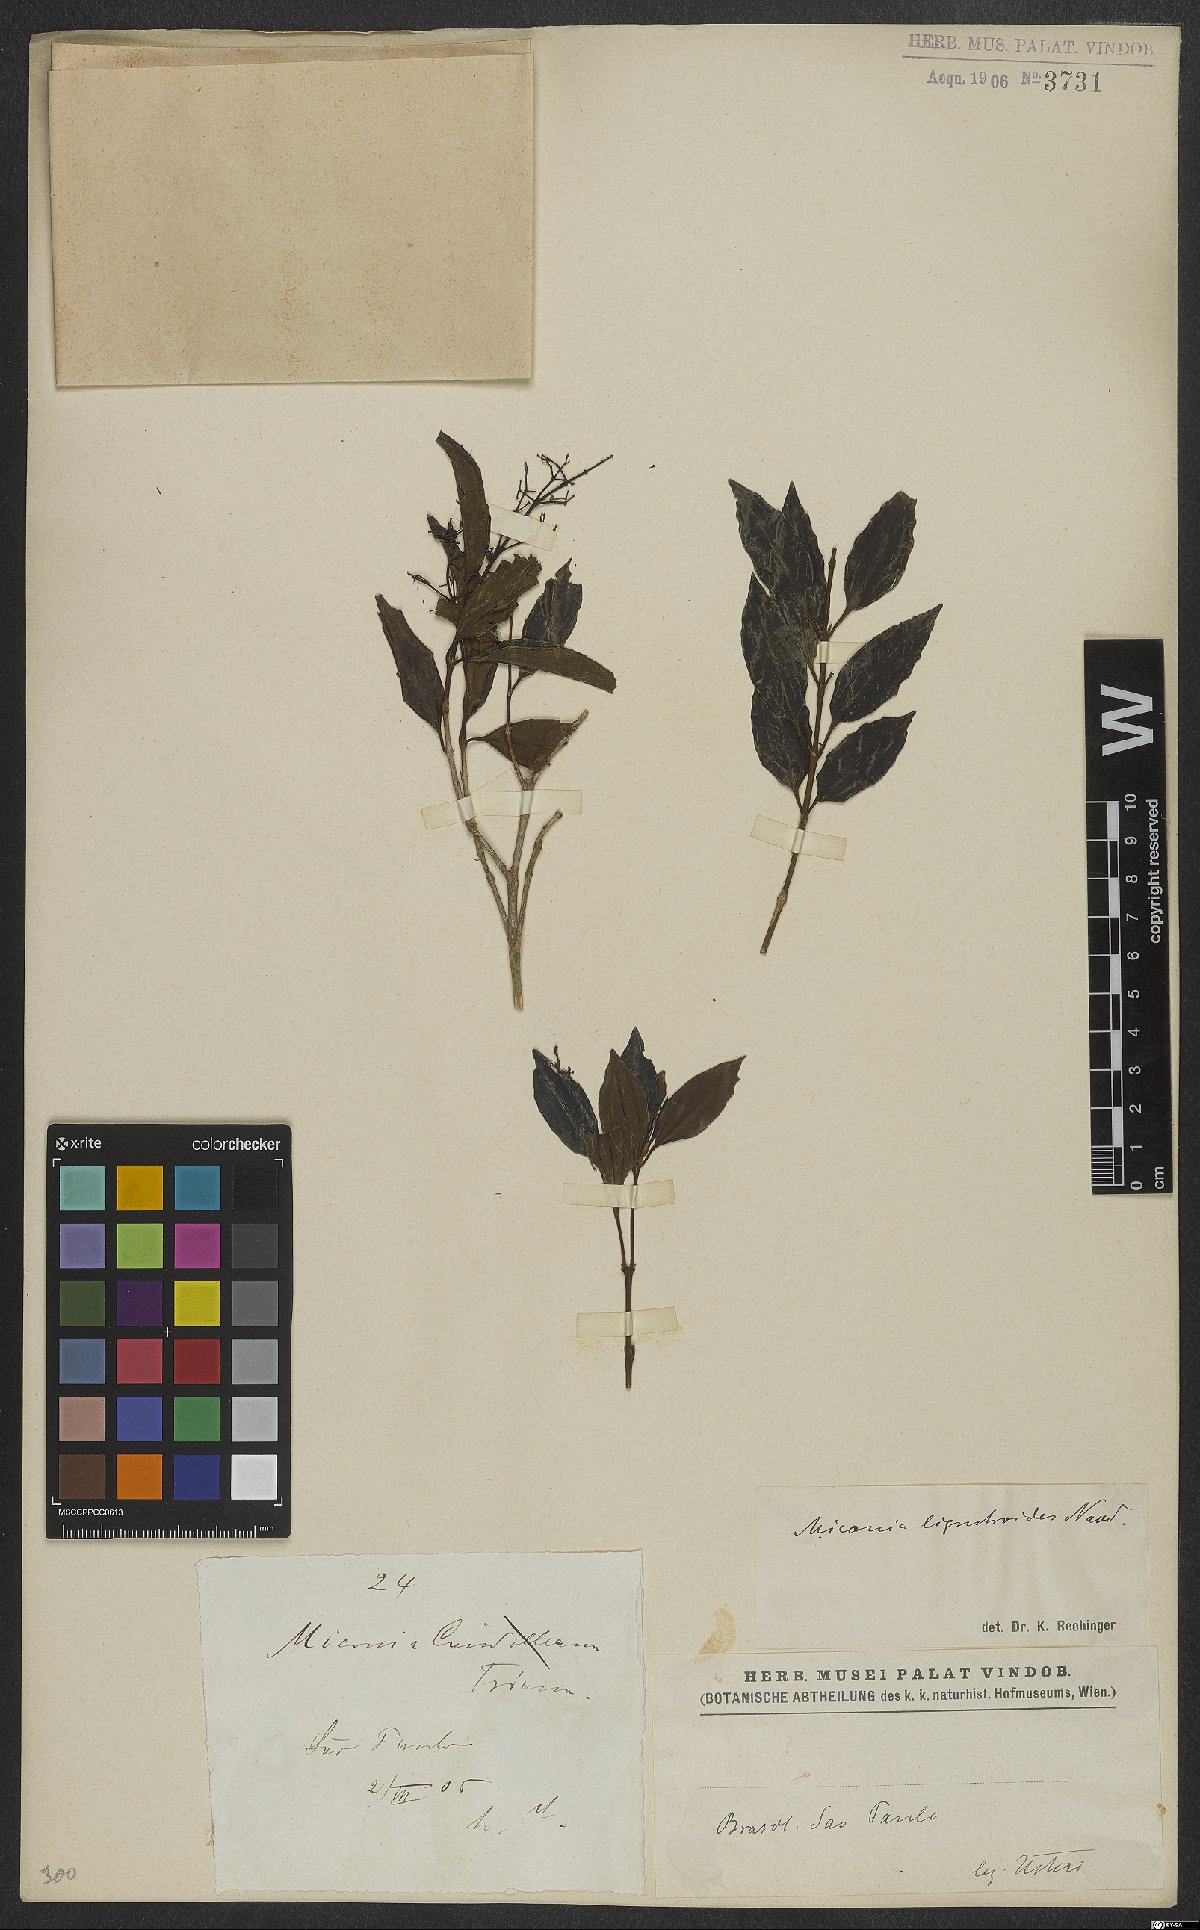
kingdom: Plantae
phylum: Tracheophyta
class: Magnoliopsida
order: Myrtales
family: Melastomataceae
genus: Miconia
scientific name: Miconia ligustroides
